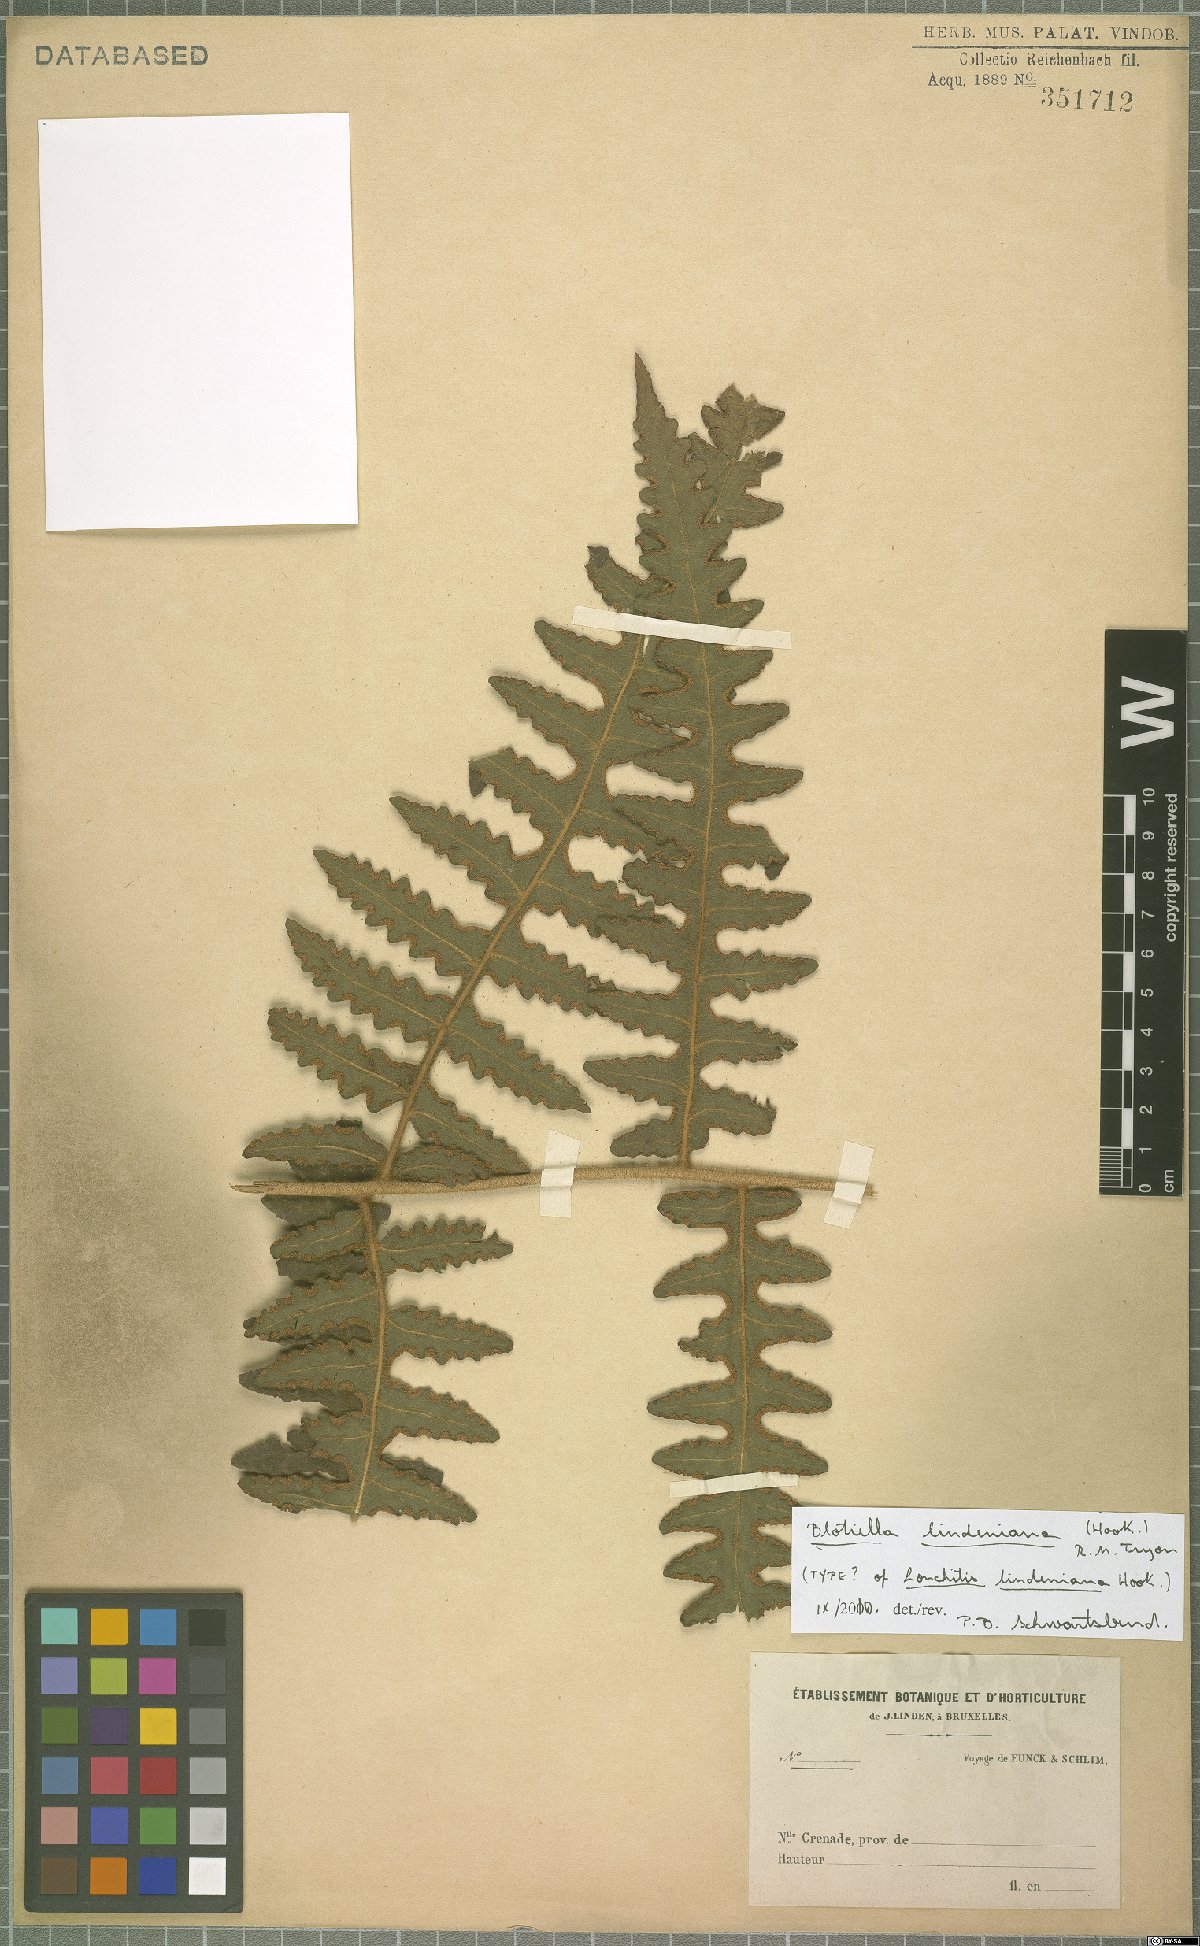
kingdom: Plantae
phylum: Tracheophyta
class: Polypodiopsida
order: Polypodiales
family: Dennstaedtiaceae
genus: Blotiella
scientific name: Blotiella aurita
